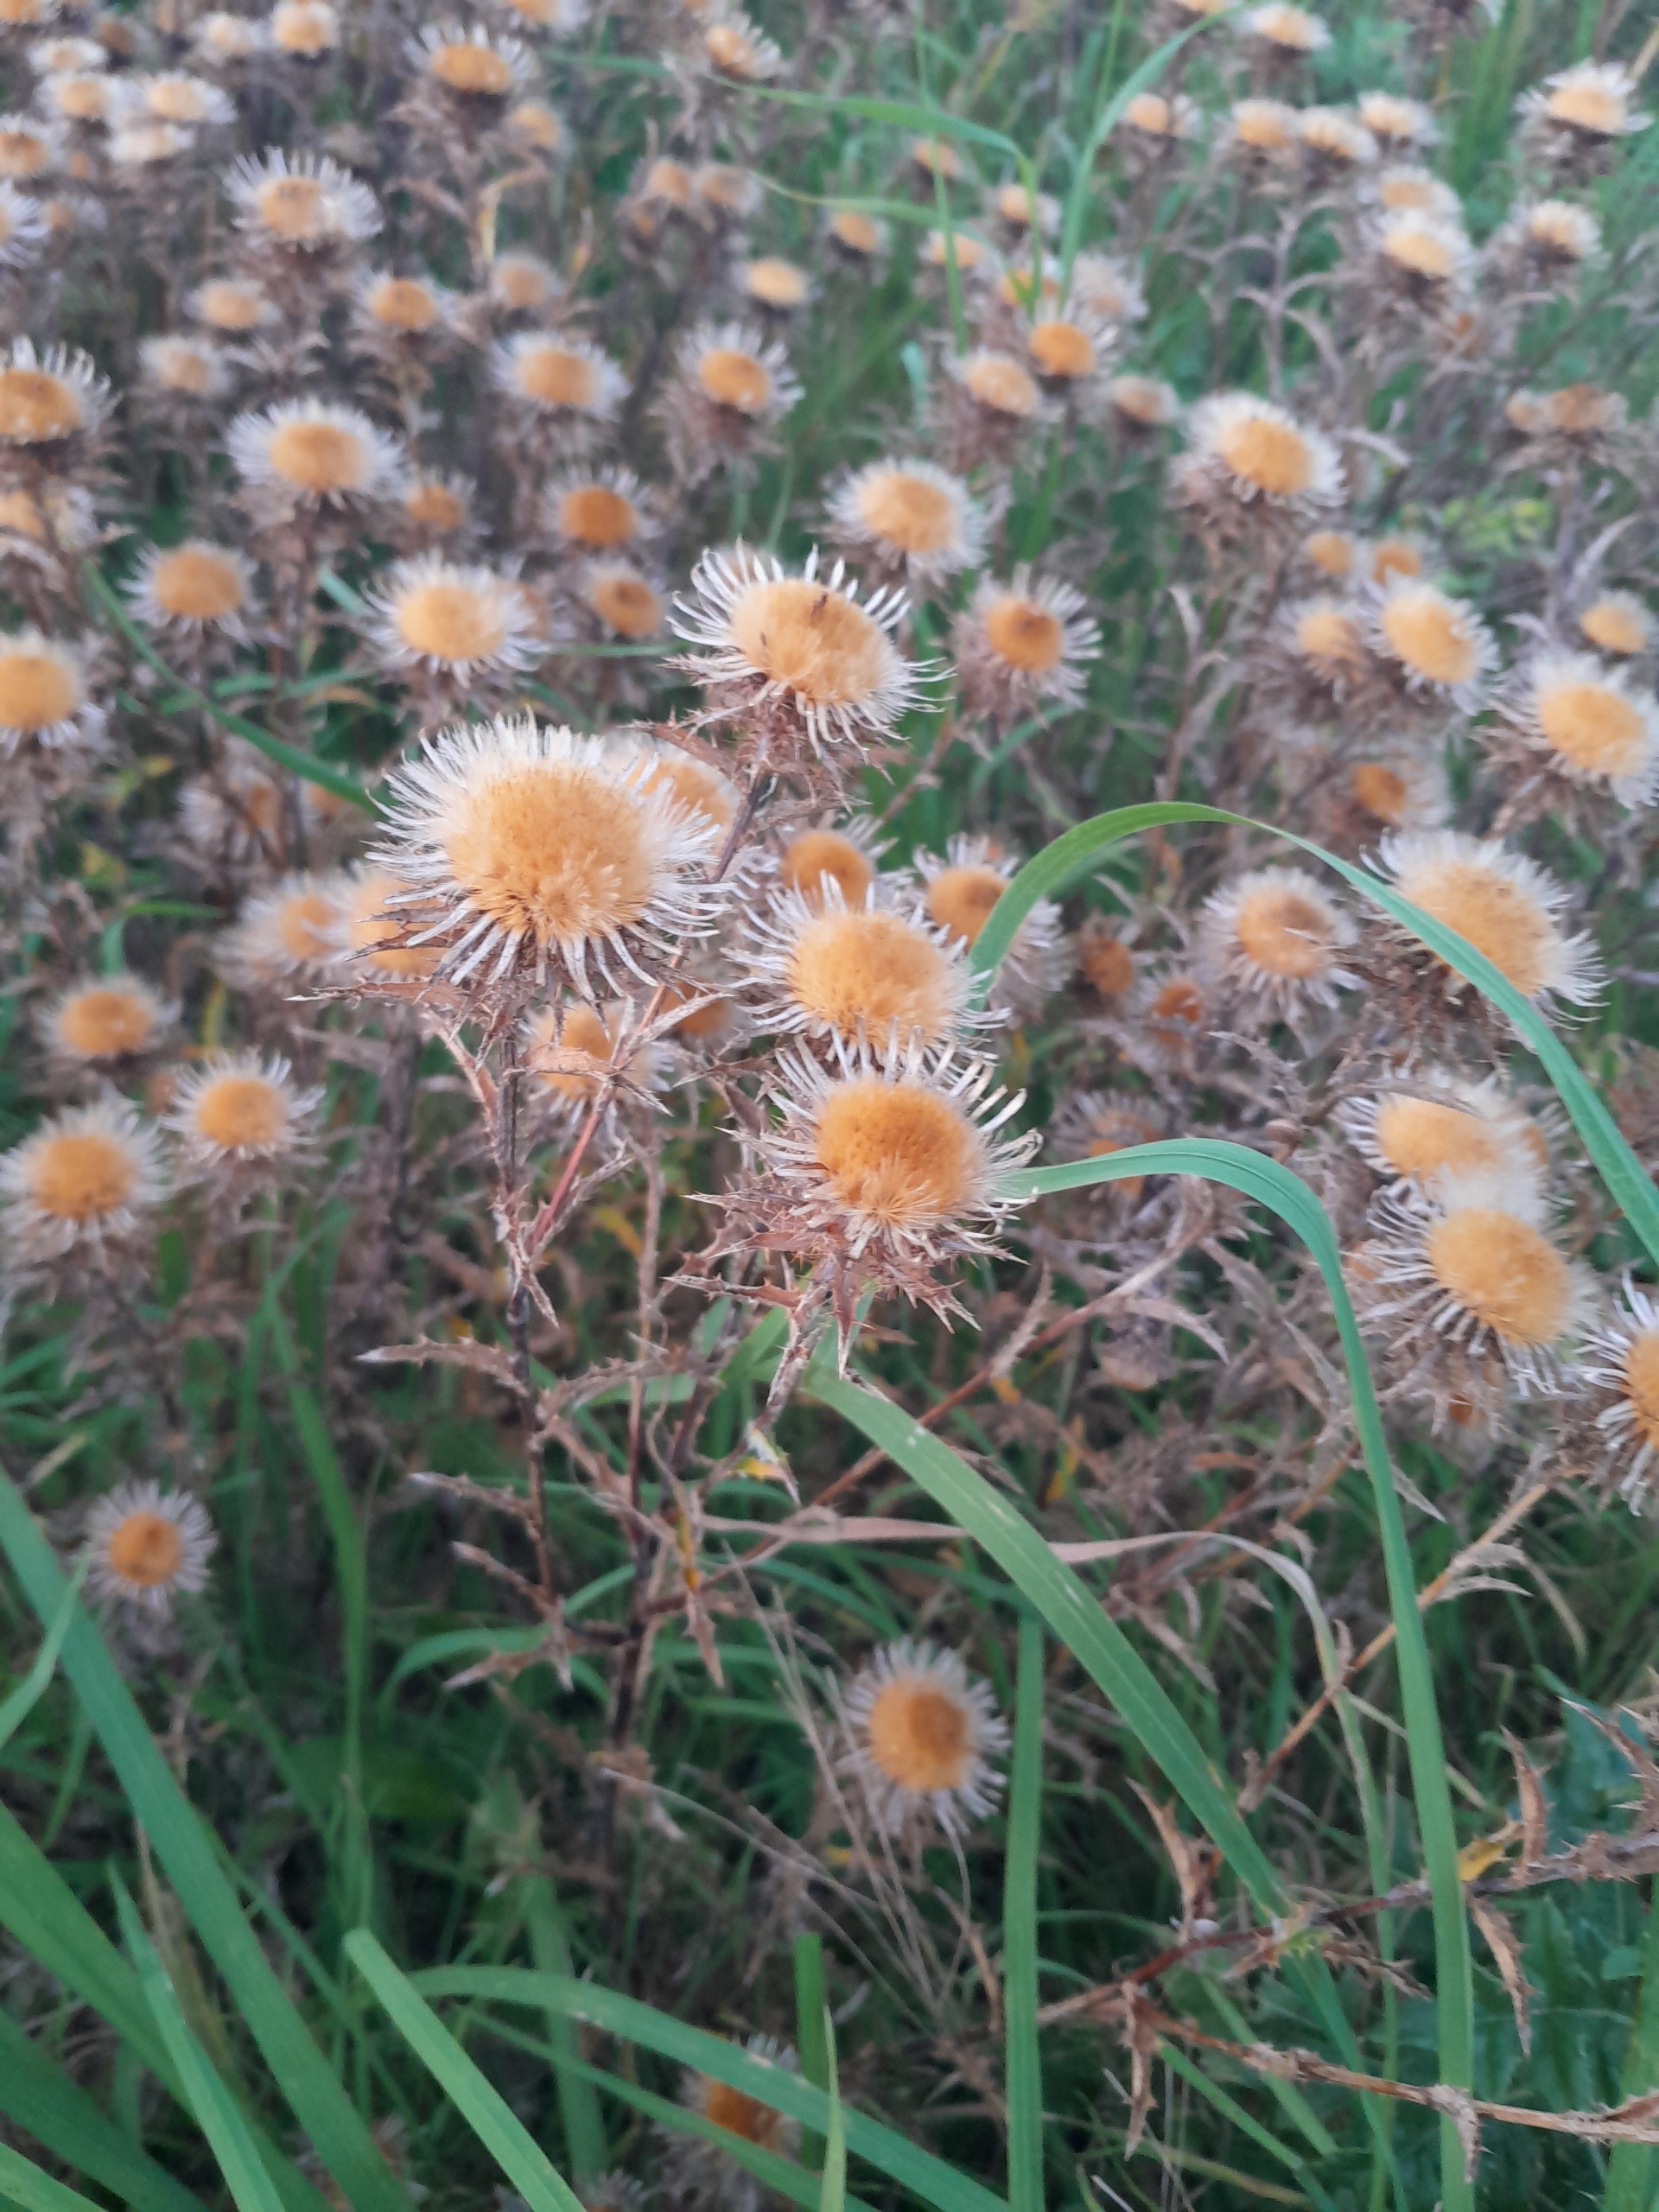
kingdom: Plantae
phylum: Tracheophyta
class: Magnoliopsida
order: Asterales
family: Asteraceae
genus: Carlina
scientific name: Carlina vulgaris
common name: Bakketidsel
